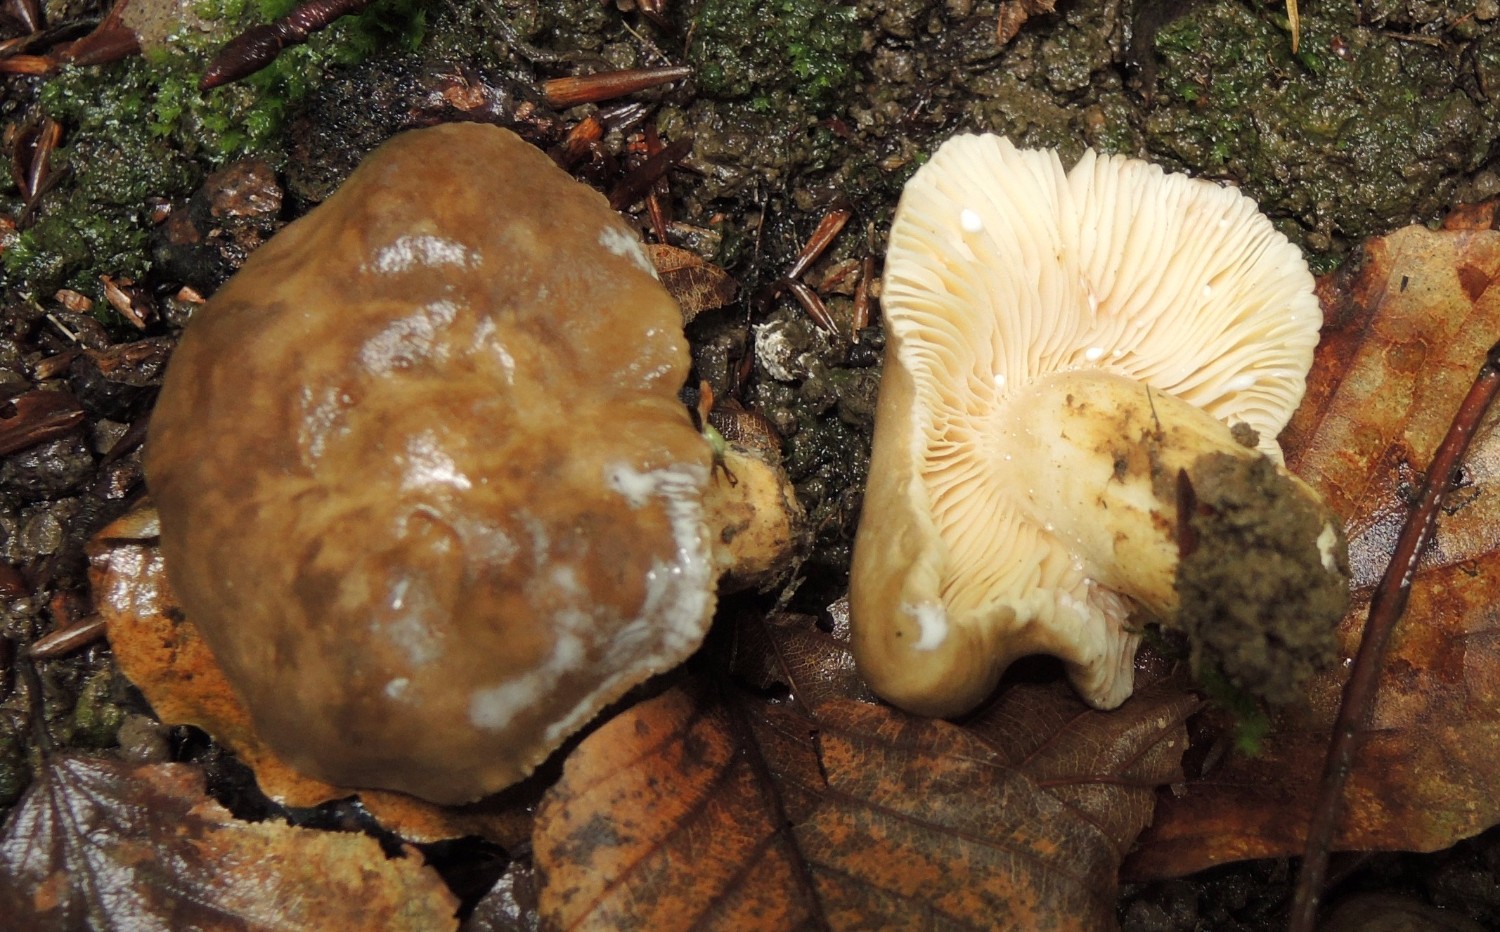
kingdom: Fungi
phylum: Basidiomycota
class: Agaricomycetes
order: Russulales
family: Russulaceae
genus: Lactarius
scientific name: Lactarius romagnesii
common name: fjernbladet mælkehat
